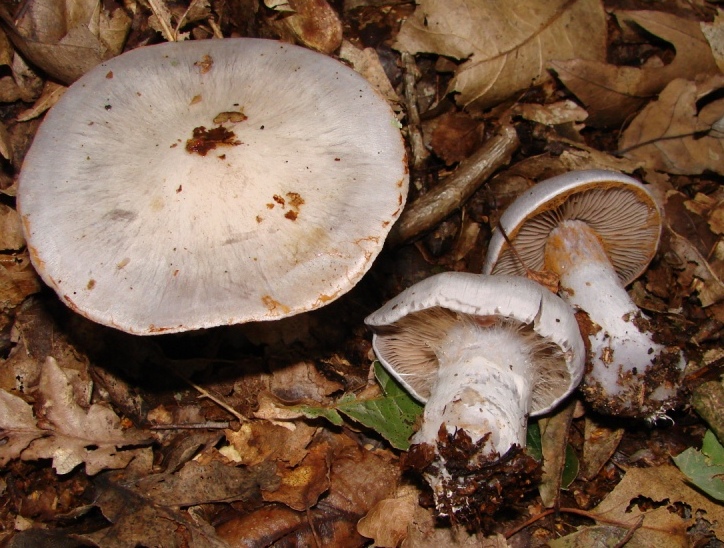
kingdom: Fungi
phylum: Basidiomycota
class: Agaricomycetes
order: Agaricales
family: Cortinariaceae
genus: Cortinarius
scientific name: Cortinarius alboviolaceus
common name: lysviolet slørhat
